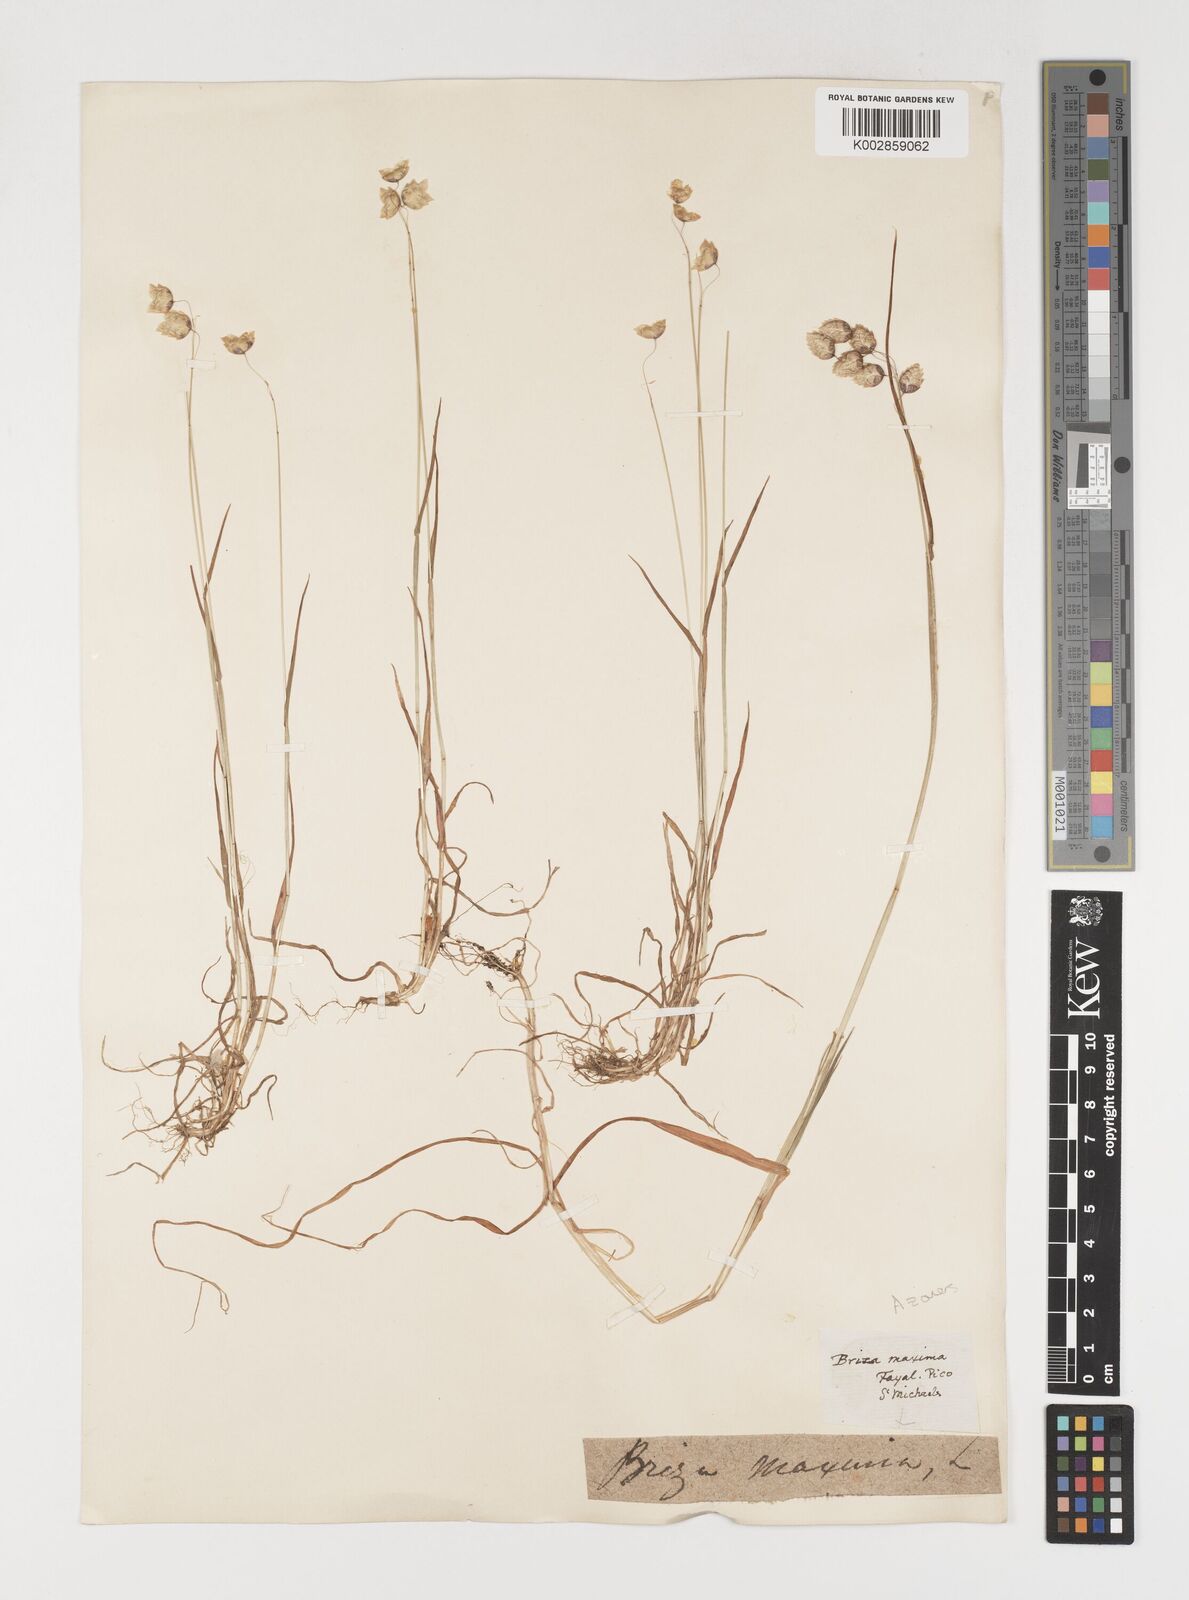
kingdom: Plantae
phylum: Tracheophyta
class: Liliopsida
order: Poales
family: Poaceae
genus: Briza
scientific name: Briza maxima
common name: Big quakinggrass
